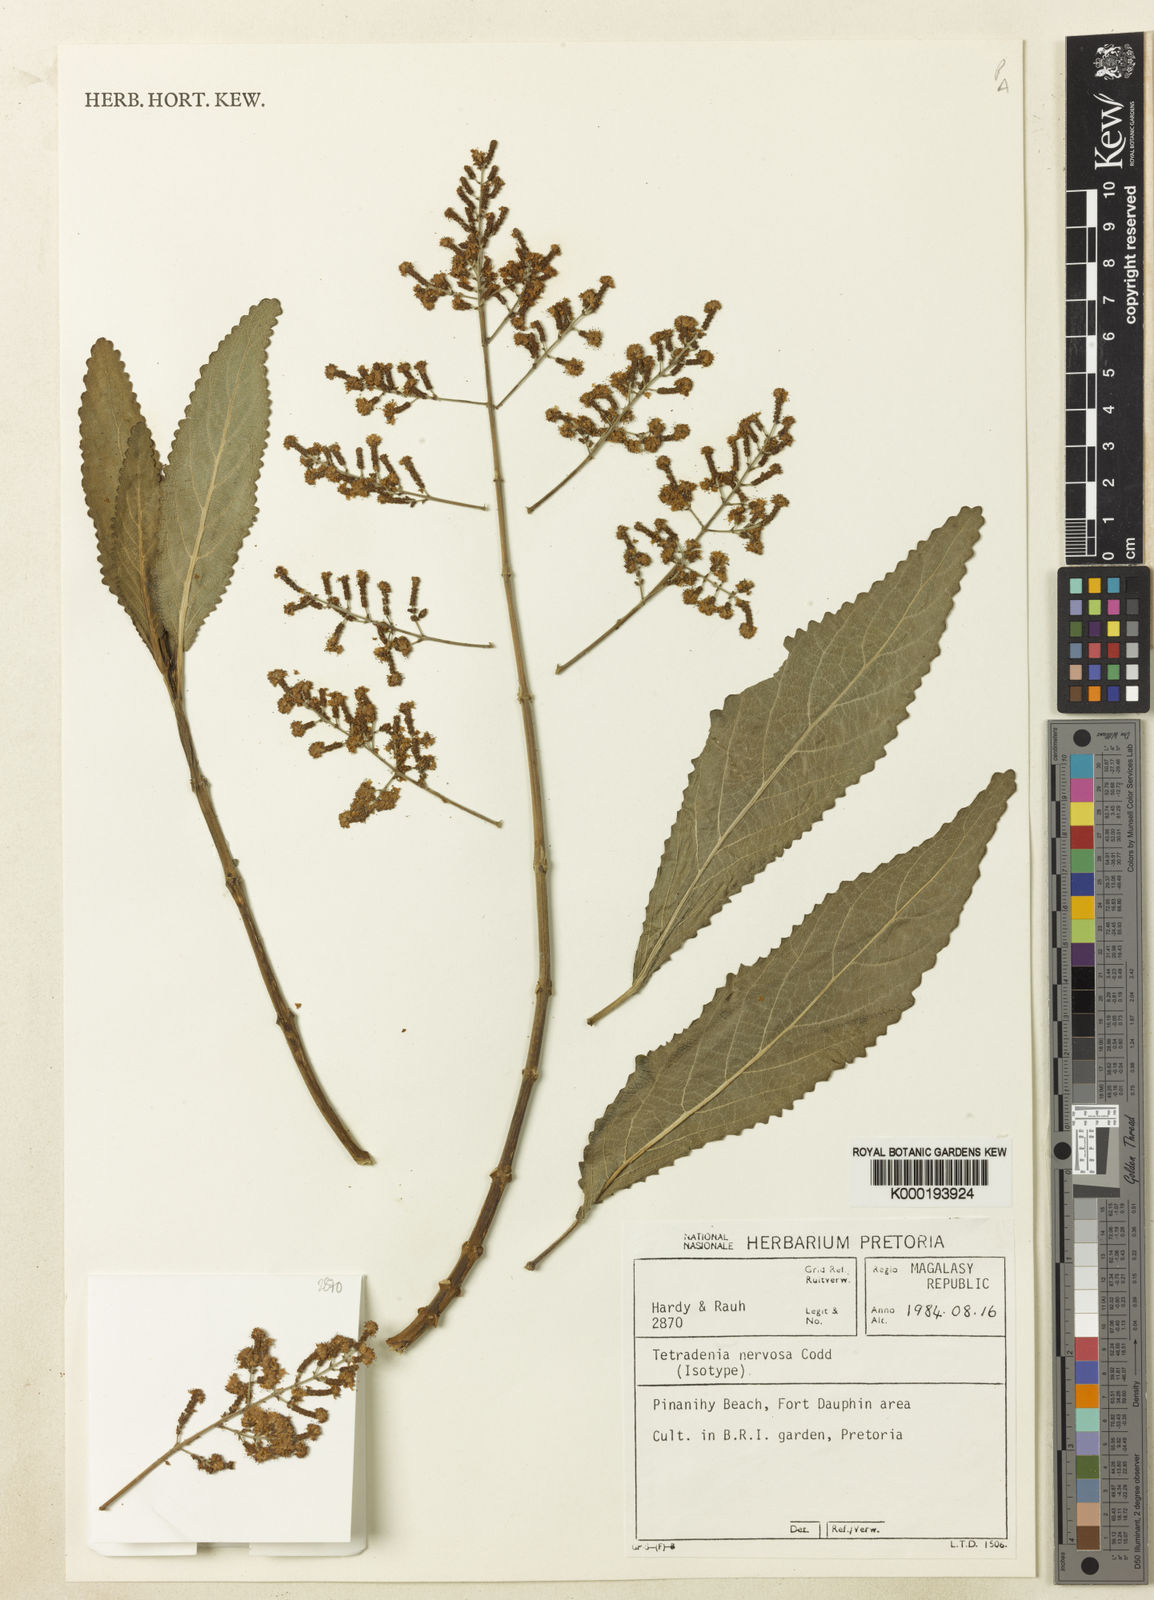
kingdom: Plantae
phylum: Tracheophyta
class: Magnoliopsida
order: Lamiales
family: Lamiaceae
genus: Tetradenia
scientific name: Tetradenia nervosa
